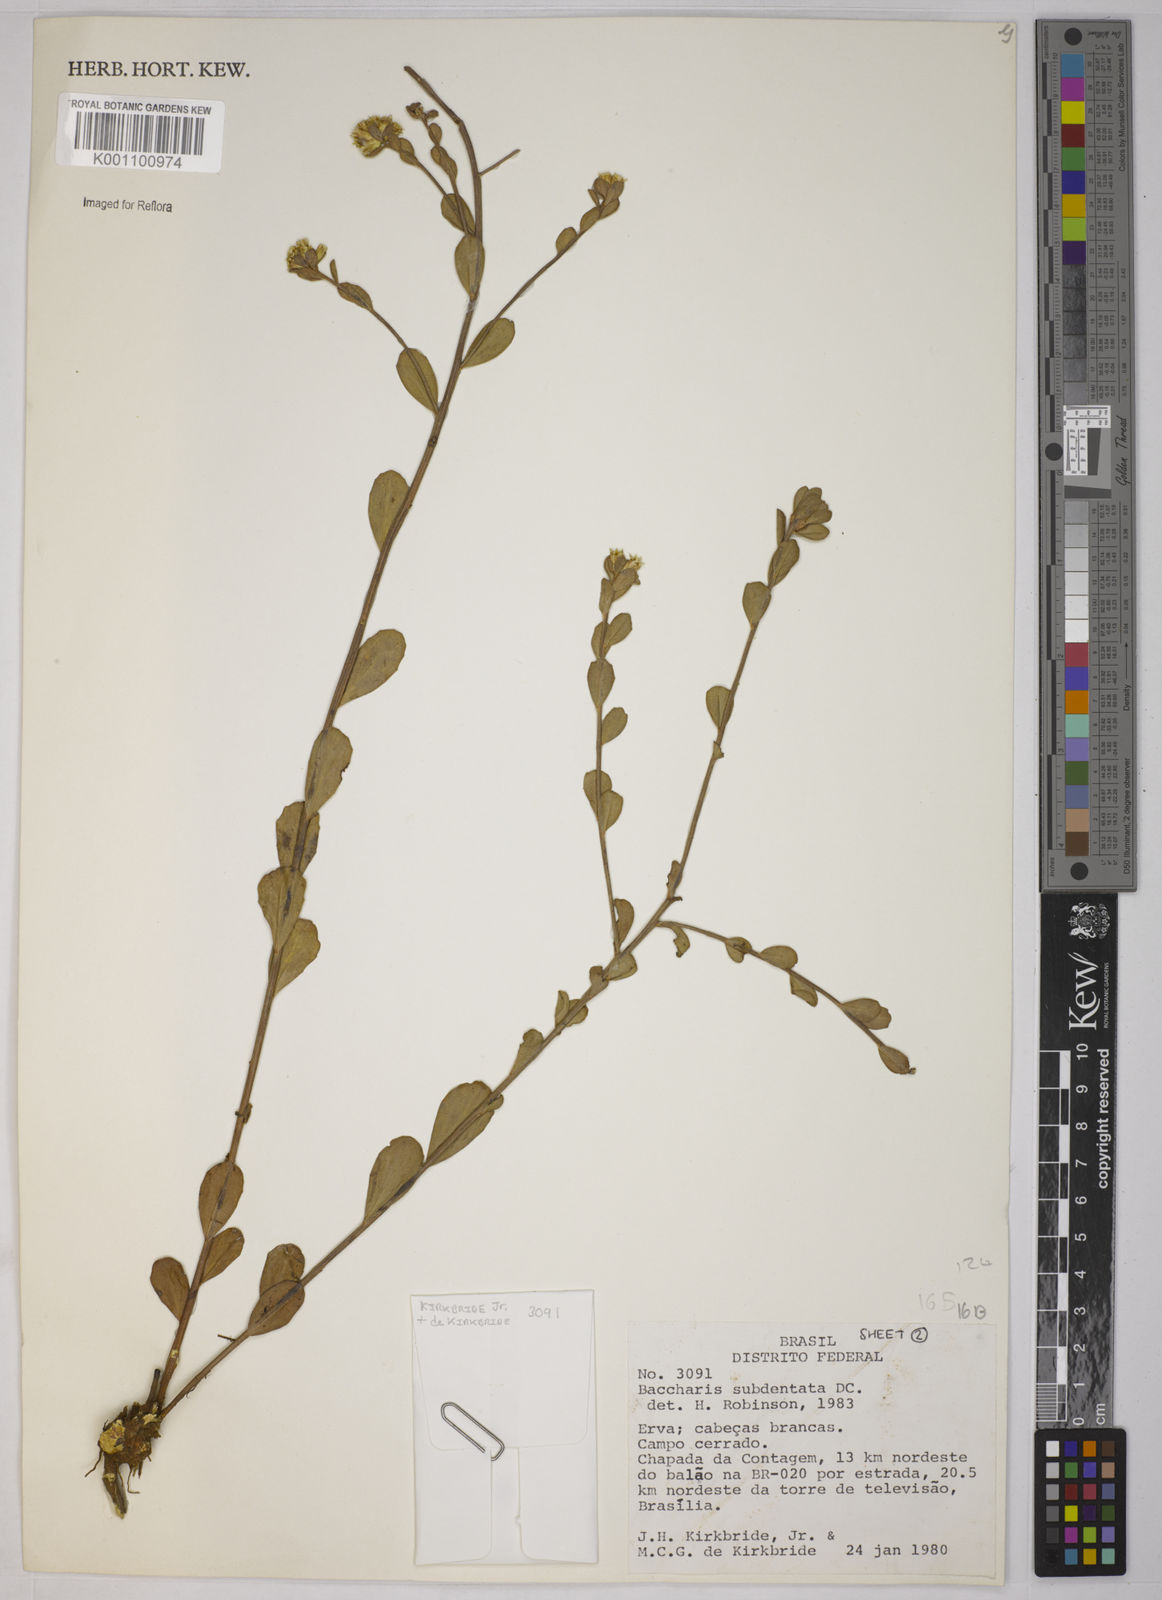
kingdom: Plantae
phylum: Tracheophyta
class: Magnoliopsida
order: Asterales
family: Asteraceae
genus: Baccharis
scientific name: Baccharis subdentata
